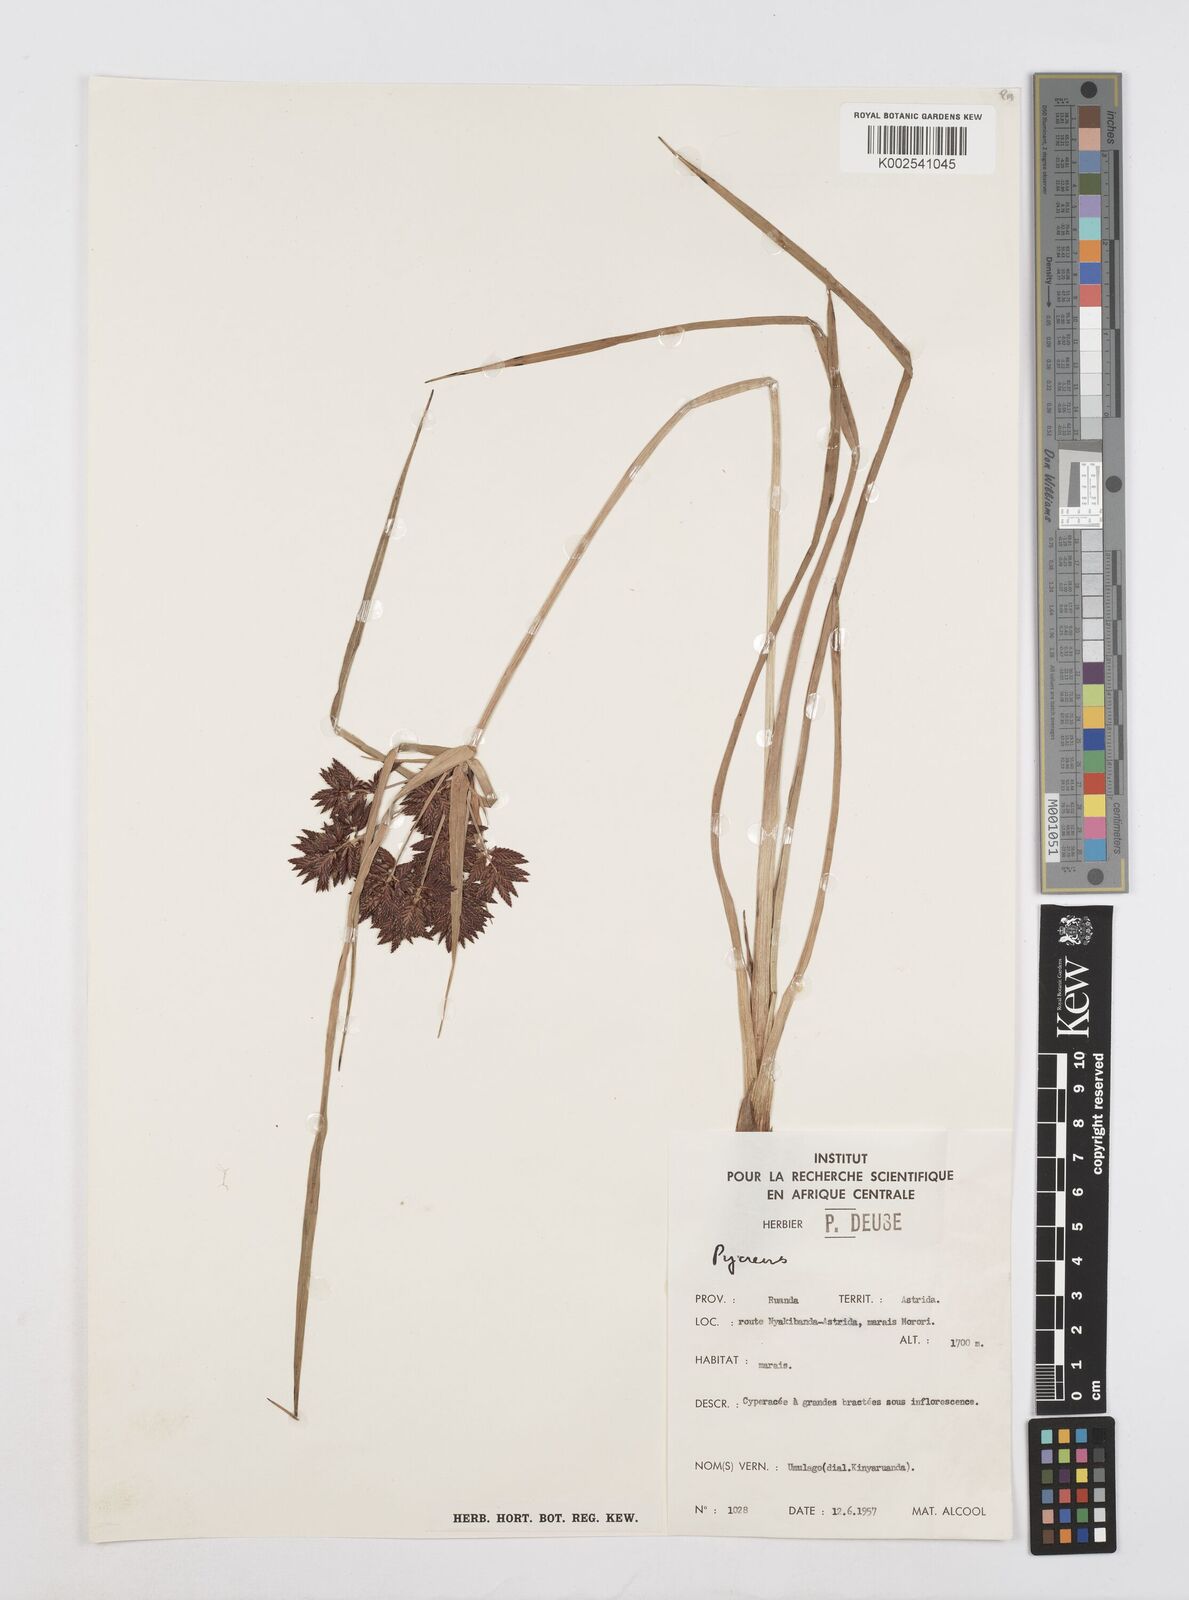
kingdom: Plantae
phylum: Tracheophyta
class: Liliopsida
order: Poales
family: Cyperaceae
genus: Cyperus
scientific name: Cyperus
